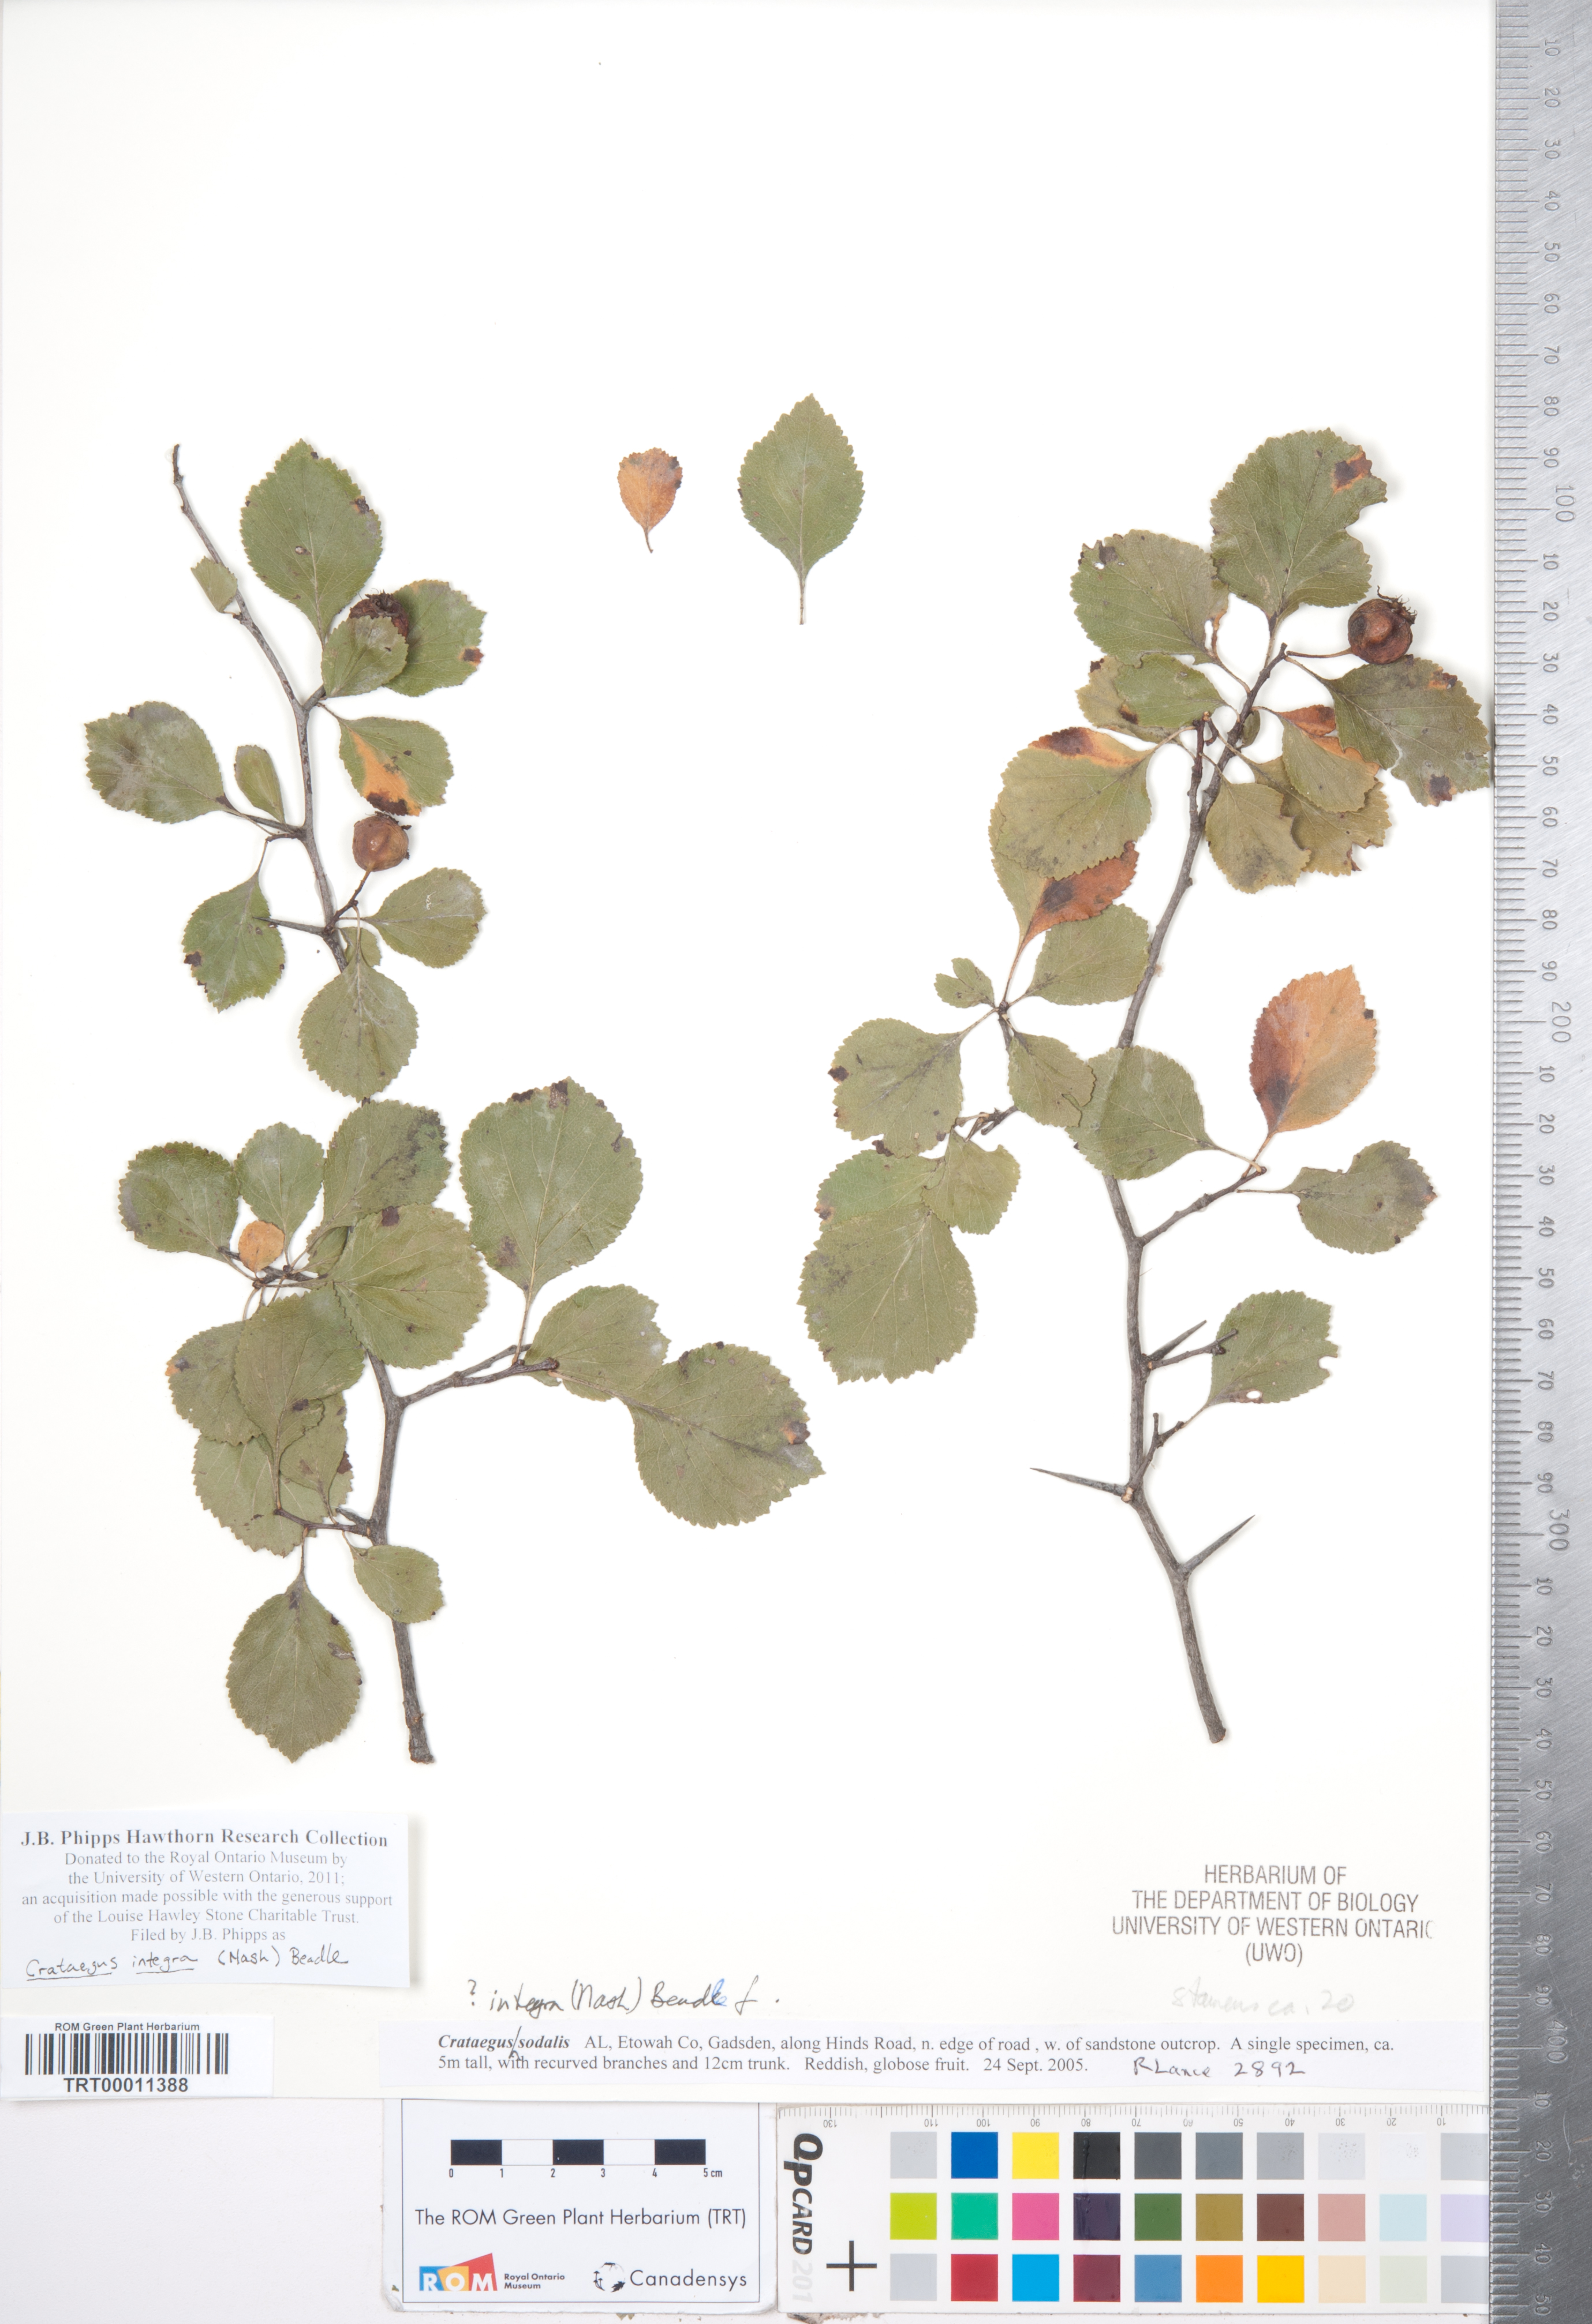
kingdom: Plantae
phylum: Tracheophyta
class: Magnoliopsida
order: Rosales
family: Rosaceae
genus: Crataegus
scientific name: Crataegus lassa
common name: Florida hawthorn
